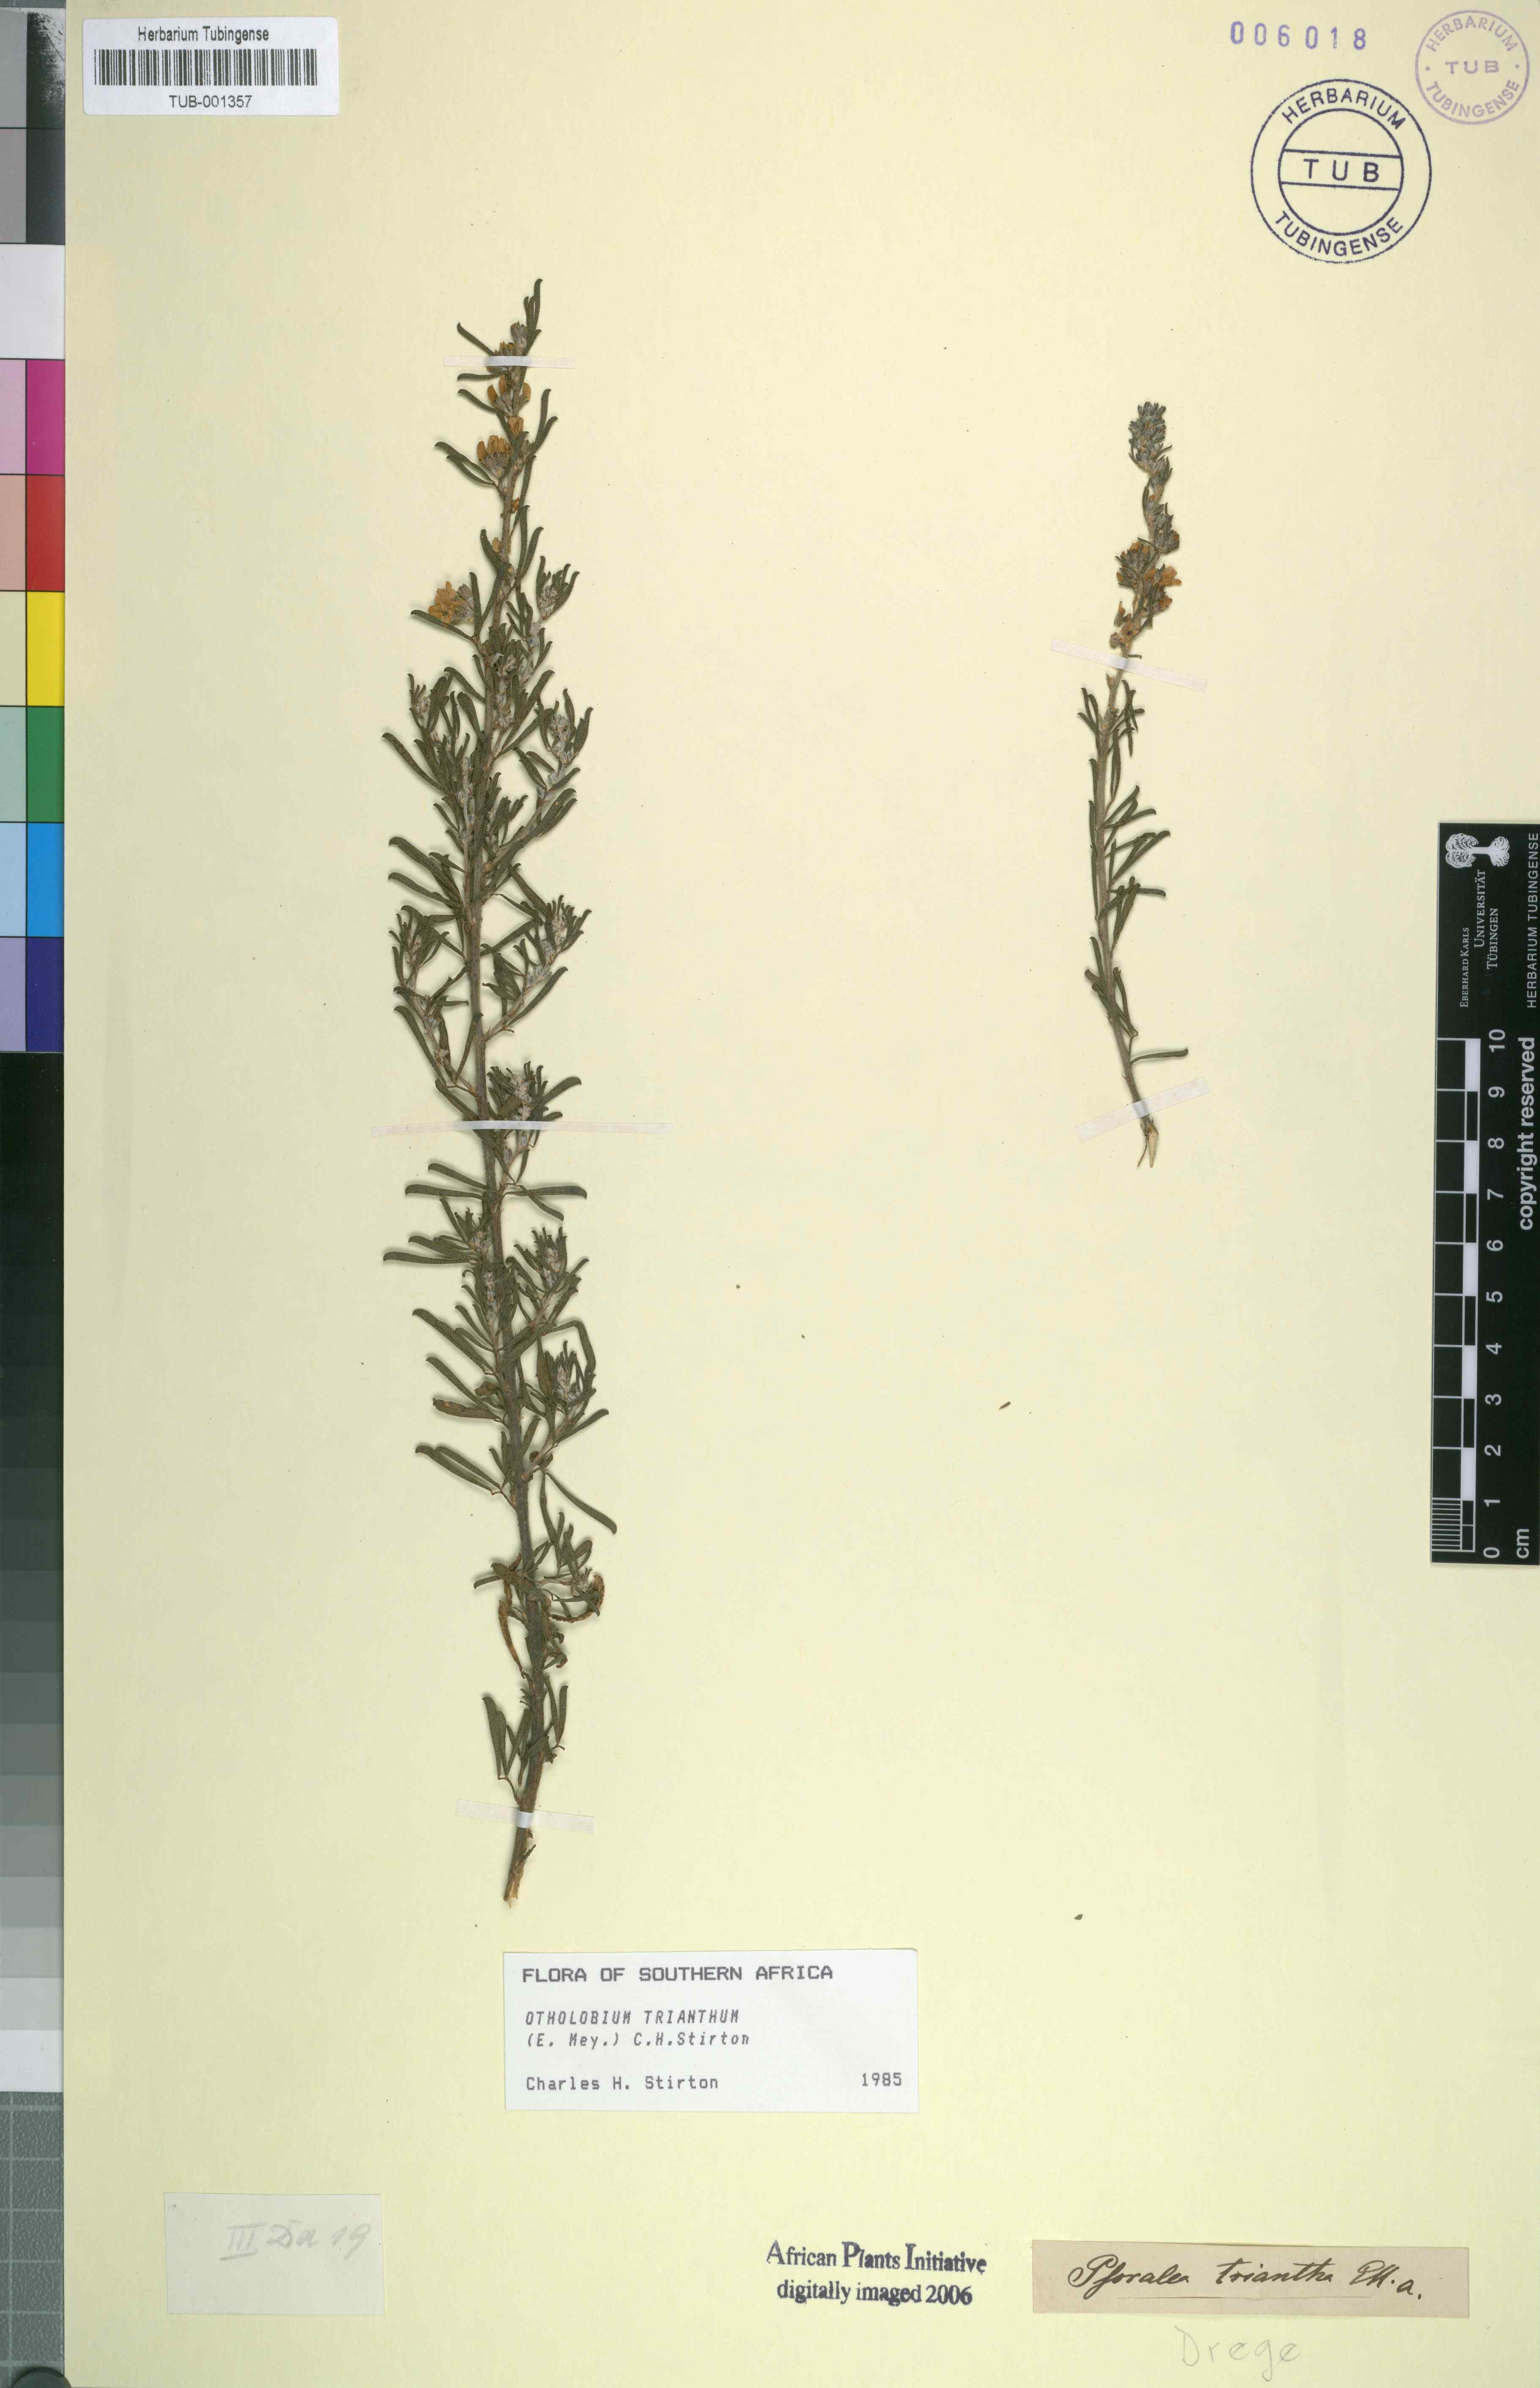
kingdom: Plantae
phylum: Tracheophyta
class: Magnoliopsida
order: Fabales
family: Fabaceae
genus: Psoralea
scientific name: Psoralea triantha
